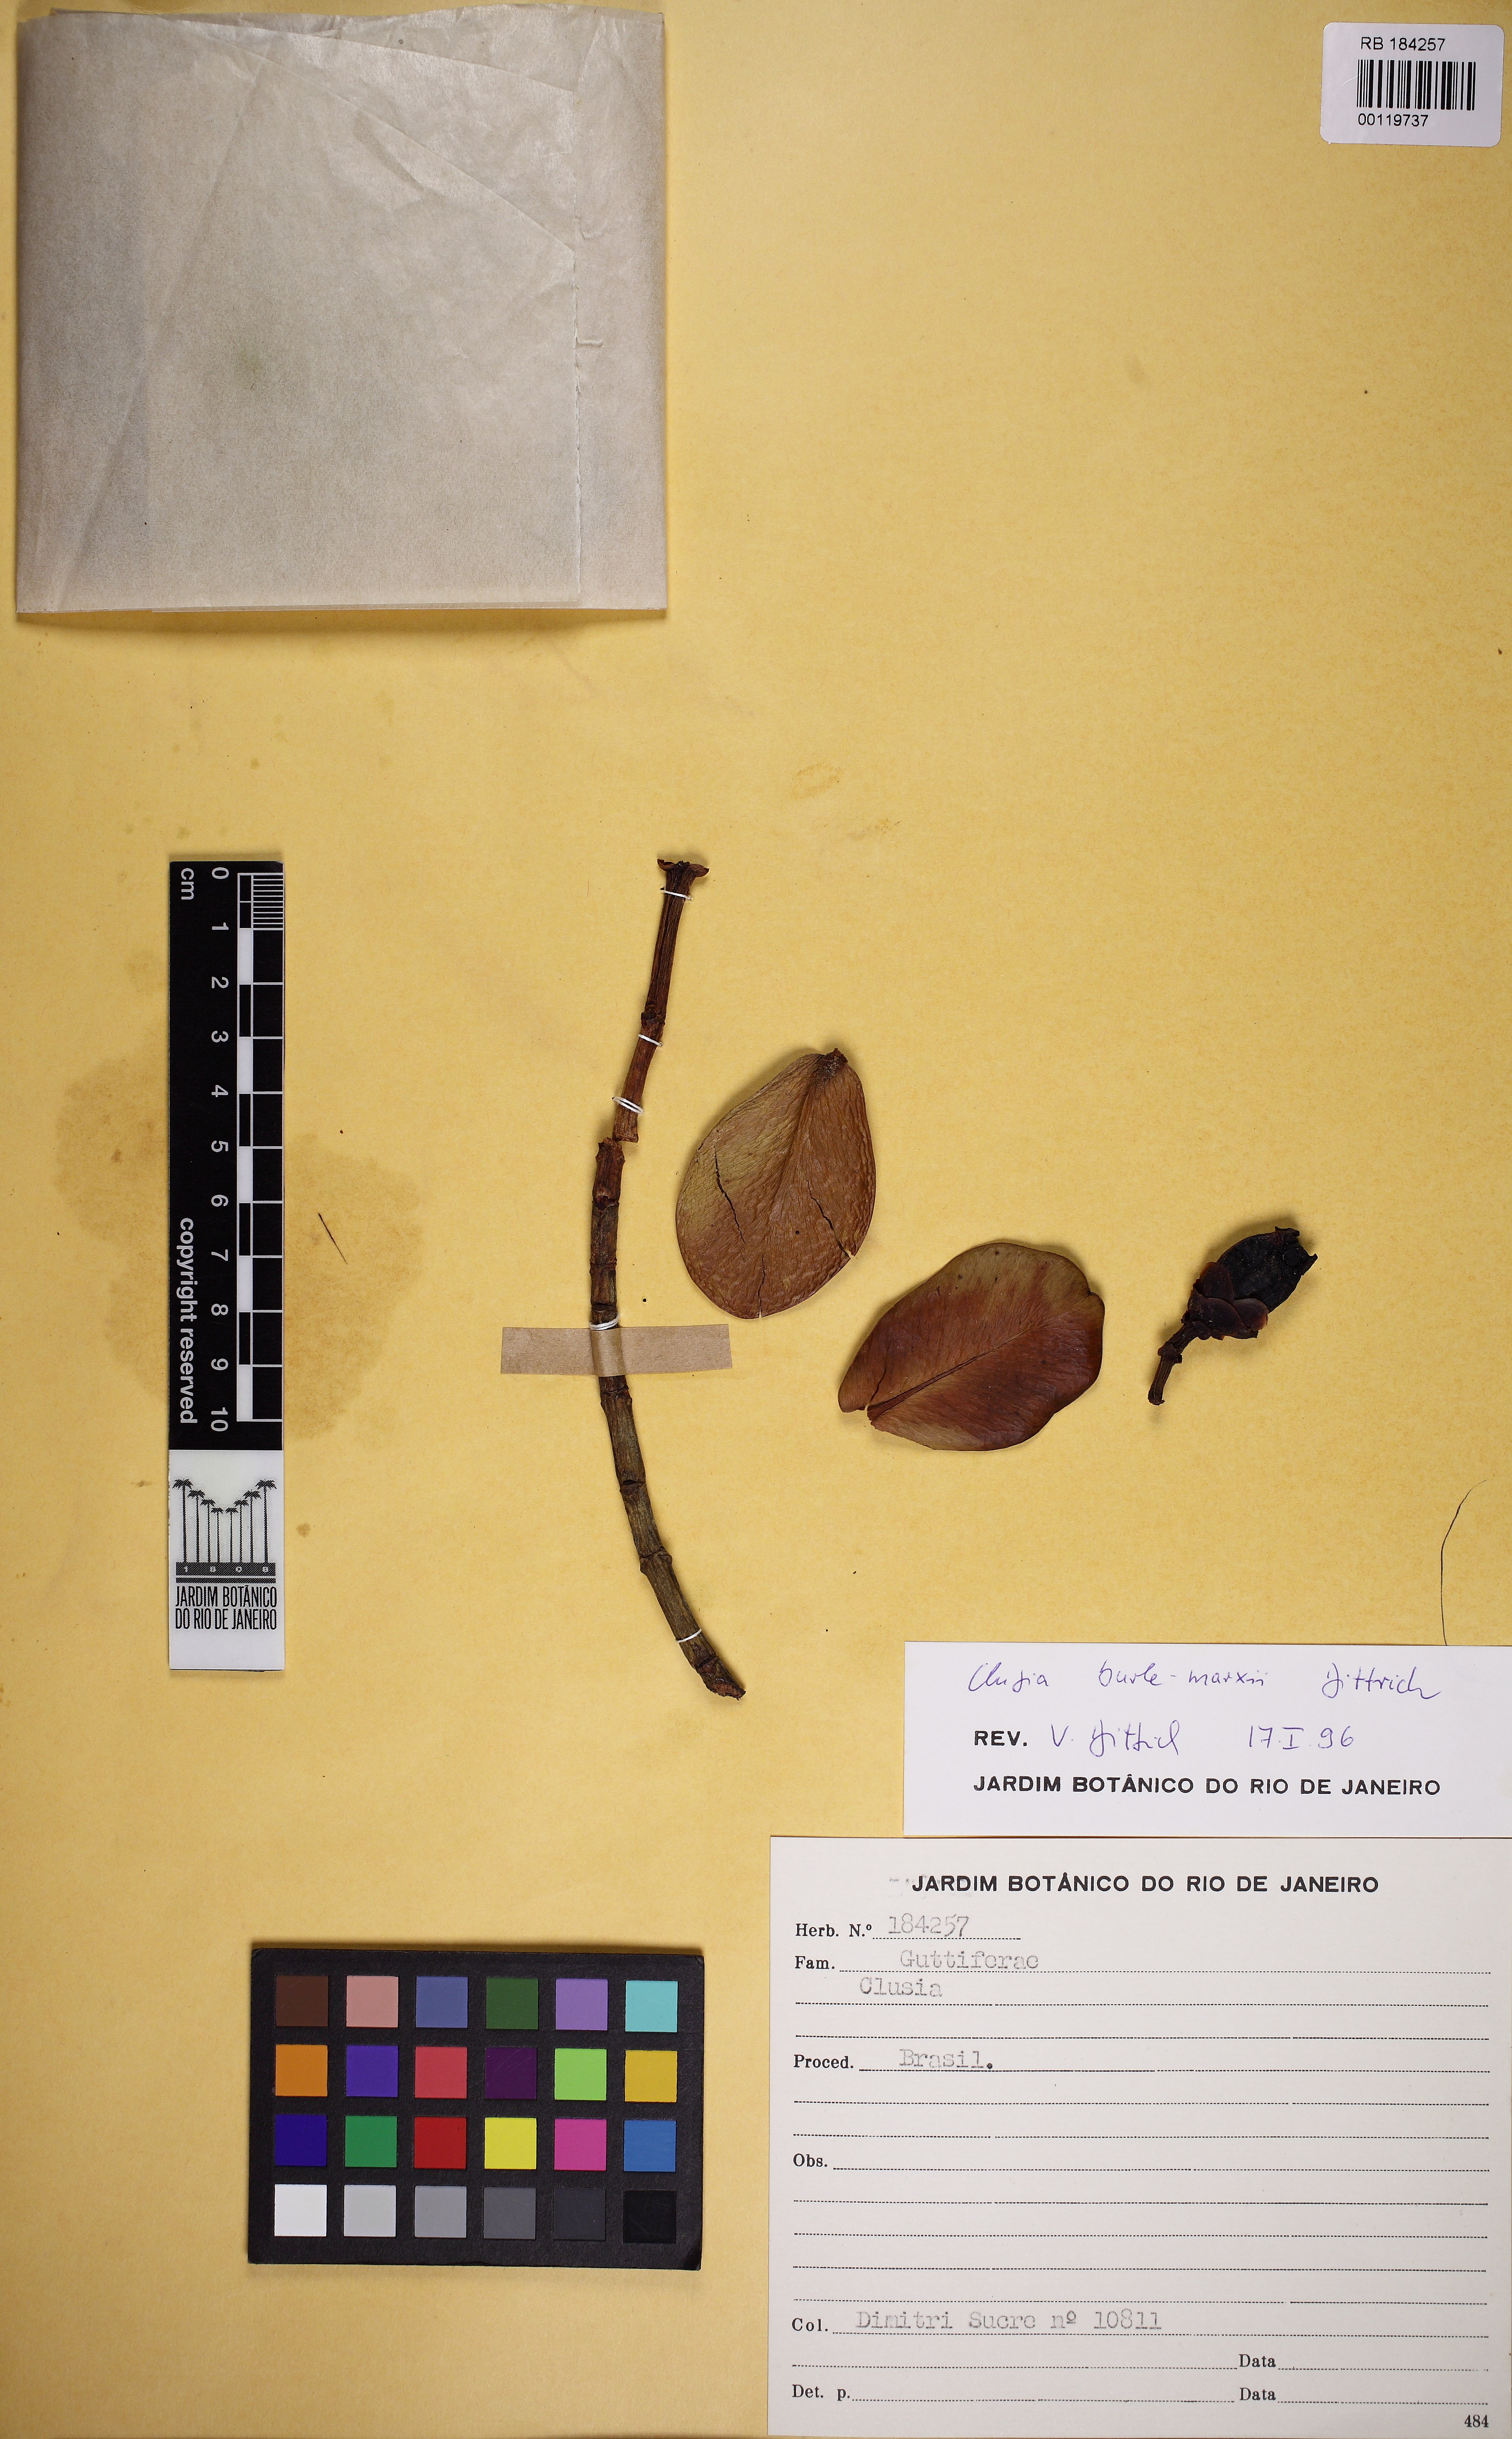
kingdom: Plantae
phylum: Tracheophyta
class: Magnoliopsida
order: Malpighiales
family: Clusiaceae
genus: Clusia
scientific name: Clusia burle-marxii
